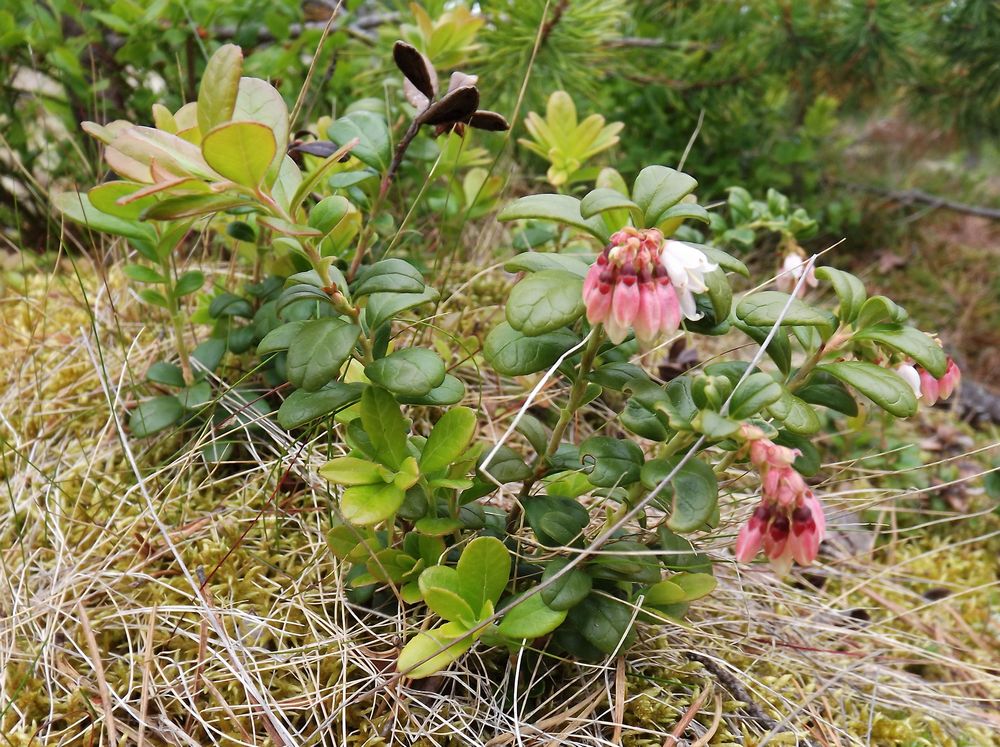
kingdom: Plantae
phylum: Tracheophyta
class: Magnoliopsida
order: Ericales
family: Ericaceae
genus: Vaccinium
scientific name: Vaccinium vitis-idaea
